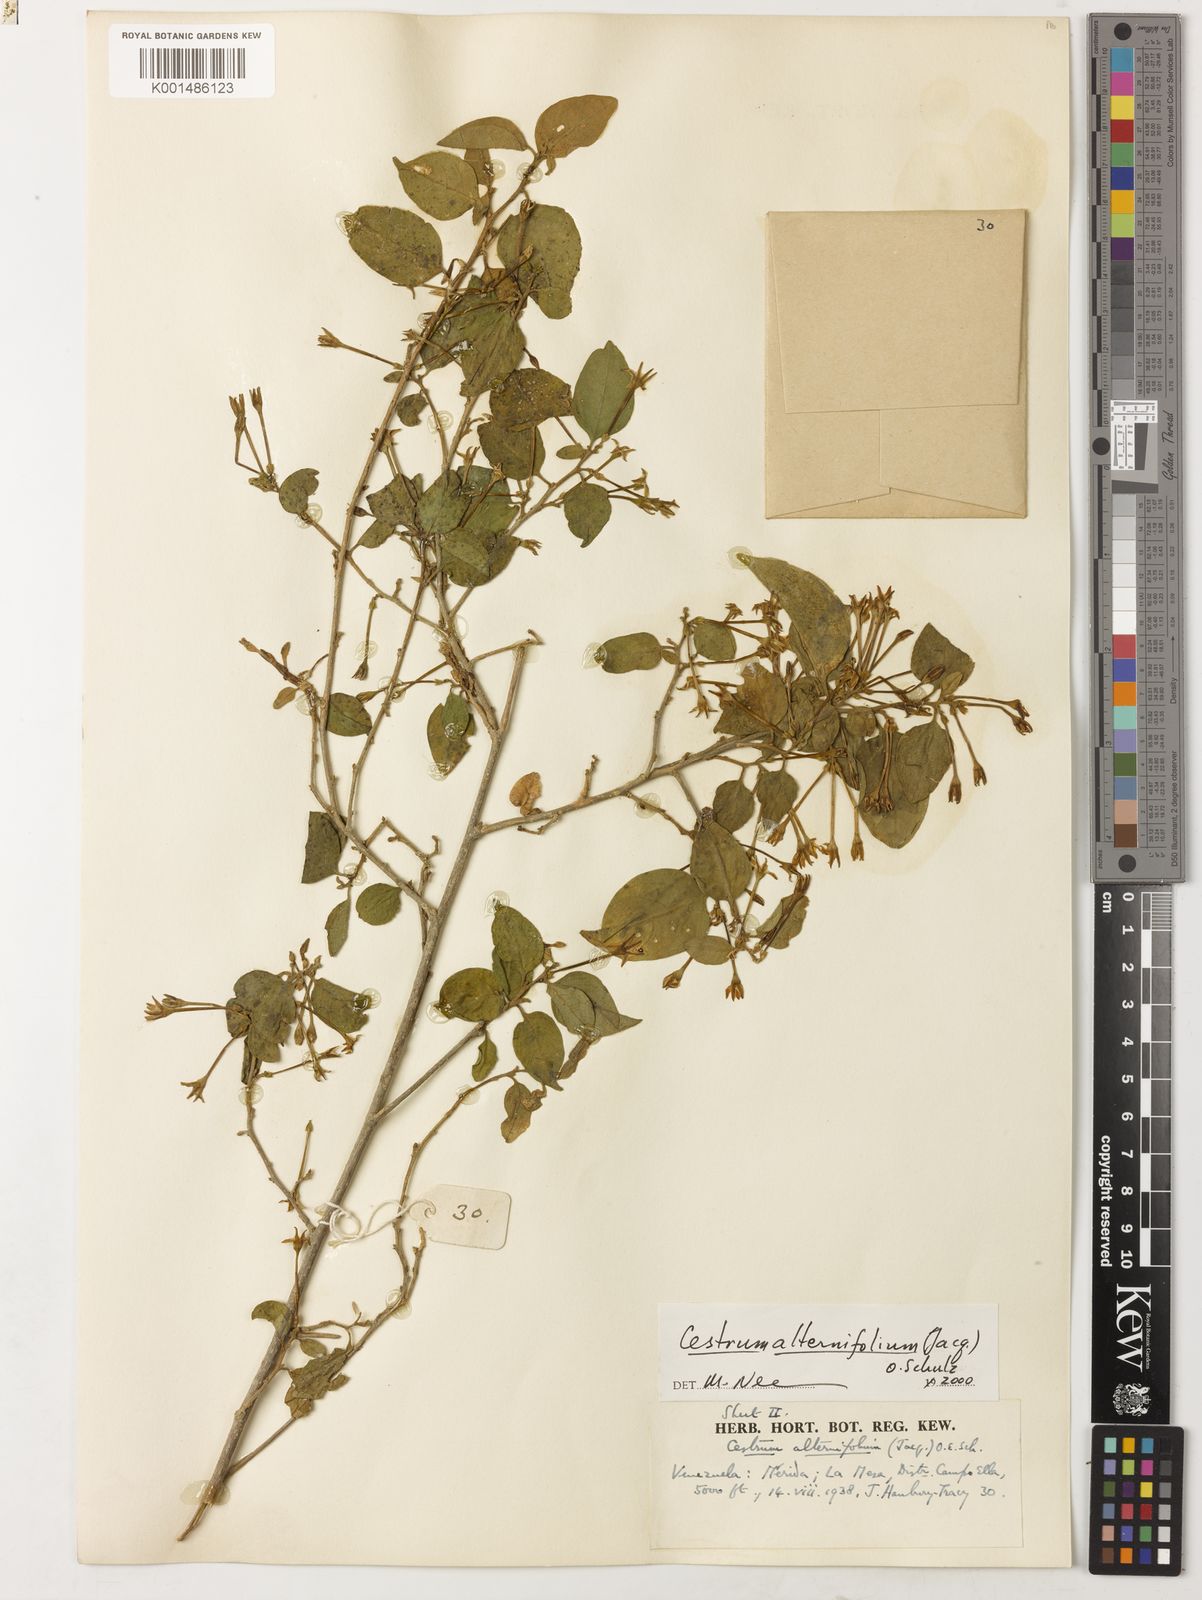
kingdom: Plantae
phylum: Tracheophyta
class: Magnoliopsida
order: Solanales
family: Solanaceae
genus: Cestrum
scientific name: Cestrum alternifolium
